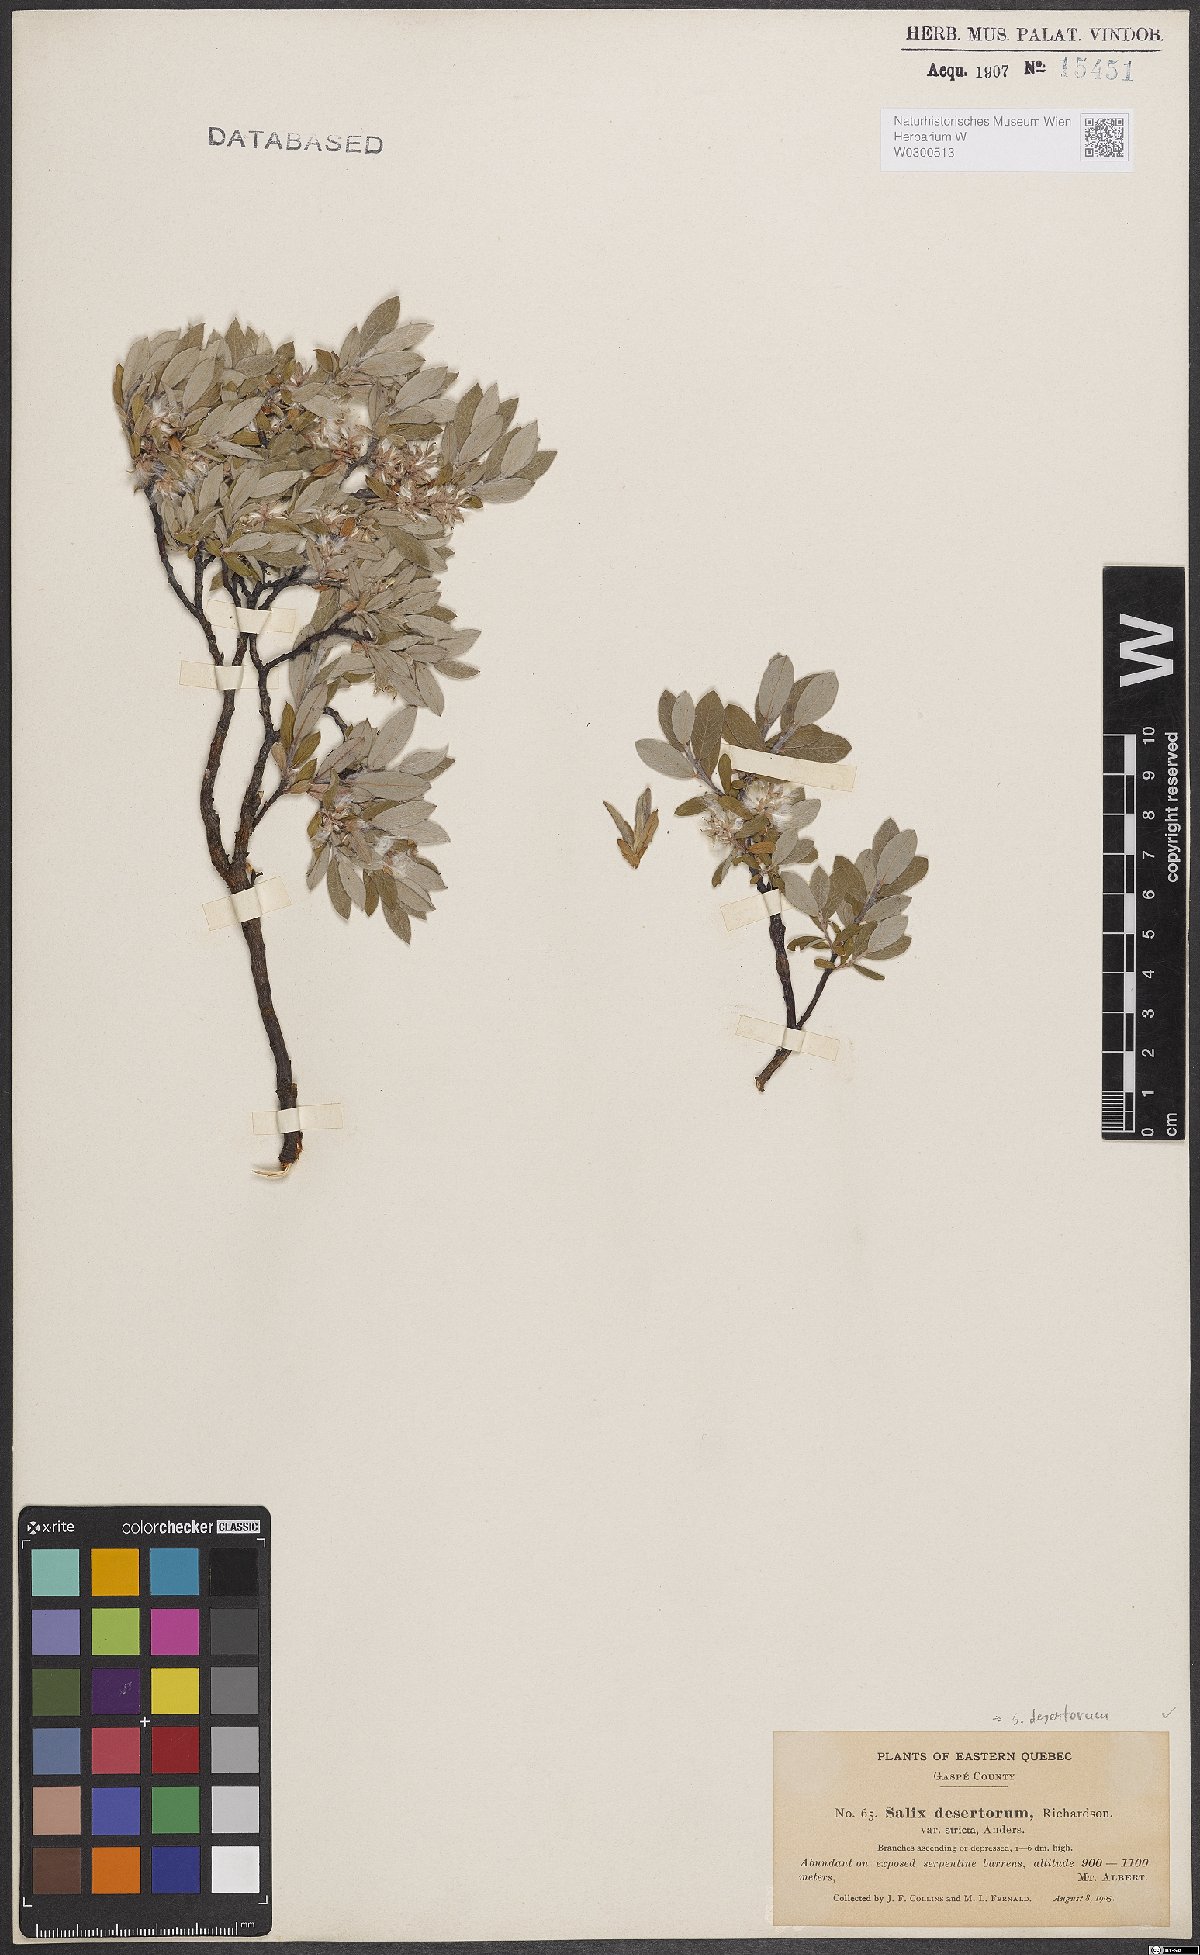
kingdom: Plantae
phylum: Tracheophyta
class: Magnoliopsida
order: Malpighiales
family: Salicaceae
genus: Salix
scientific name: Salix glauca
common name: Glaucous willow
